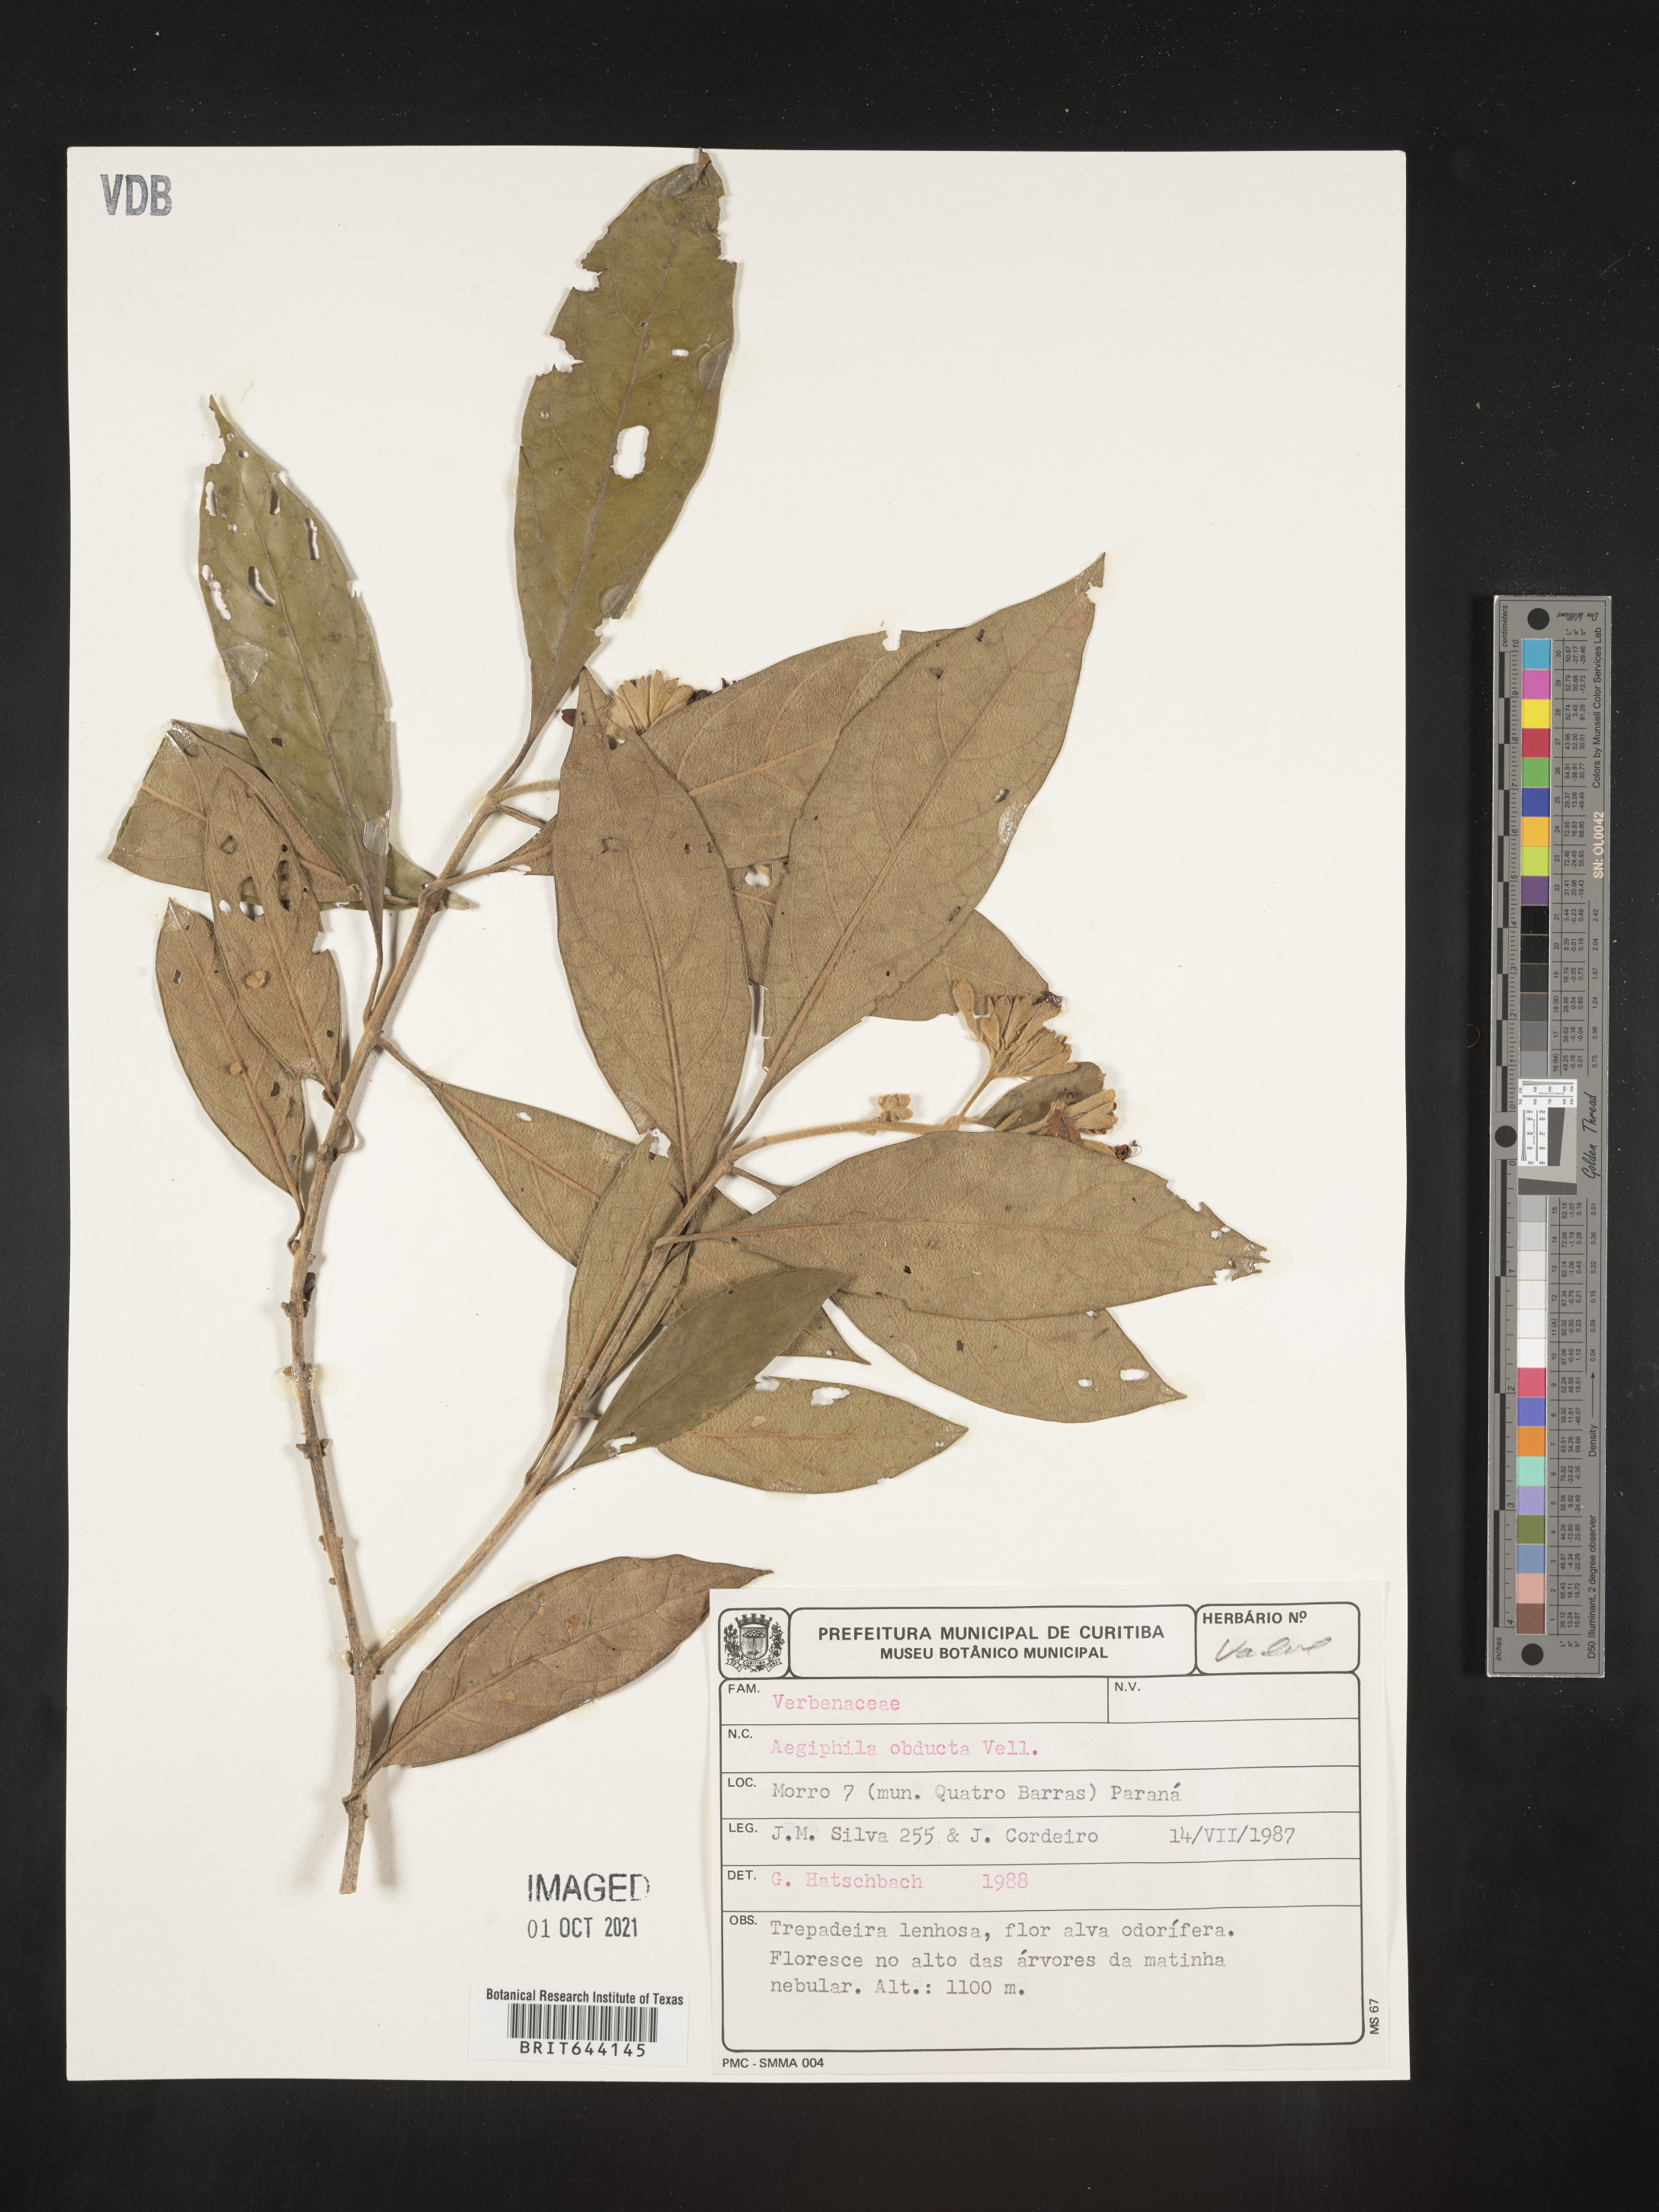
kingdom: Plantae
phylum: Tracheophyta
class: Magnoliopsida
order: Lamiales
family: Lamiaceae
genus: Aegiphila
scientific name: Aegiphila
